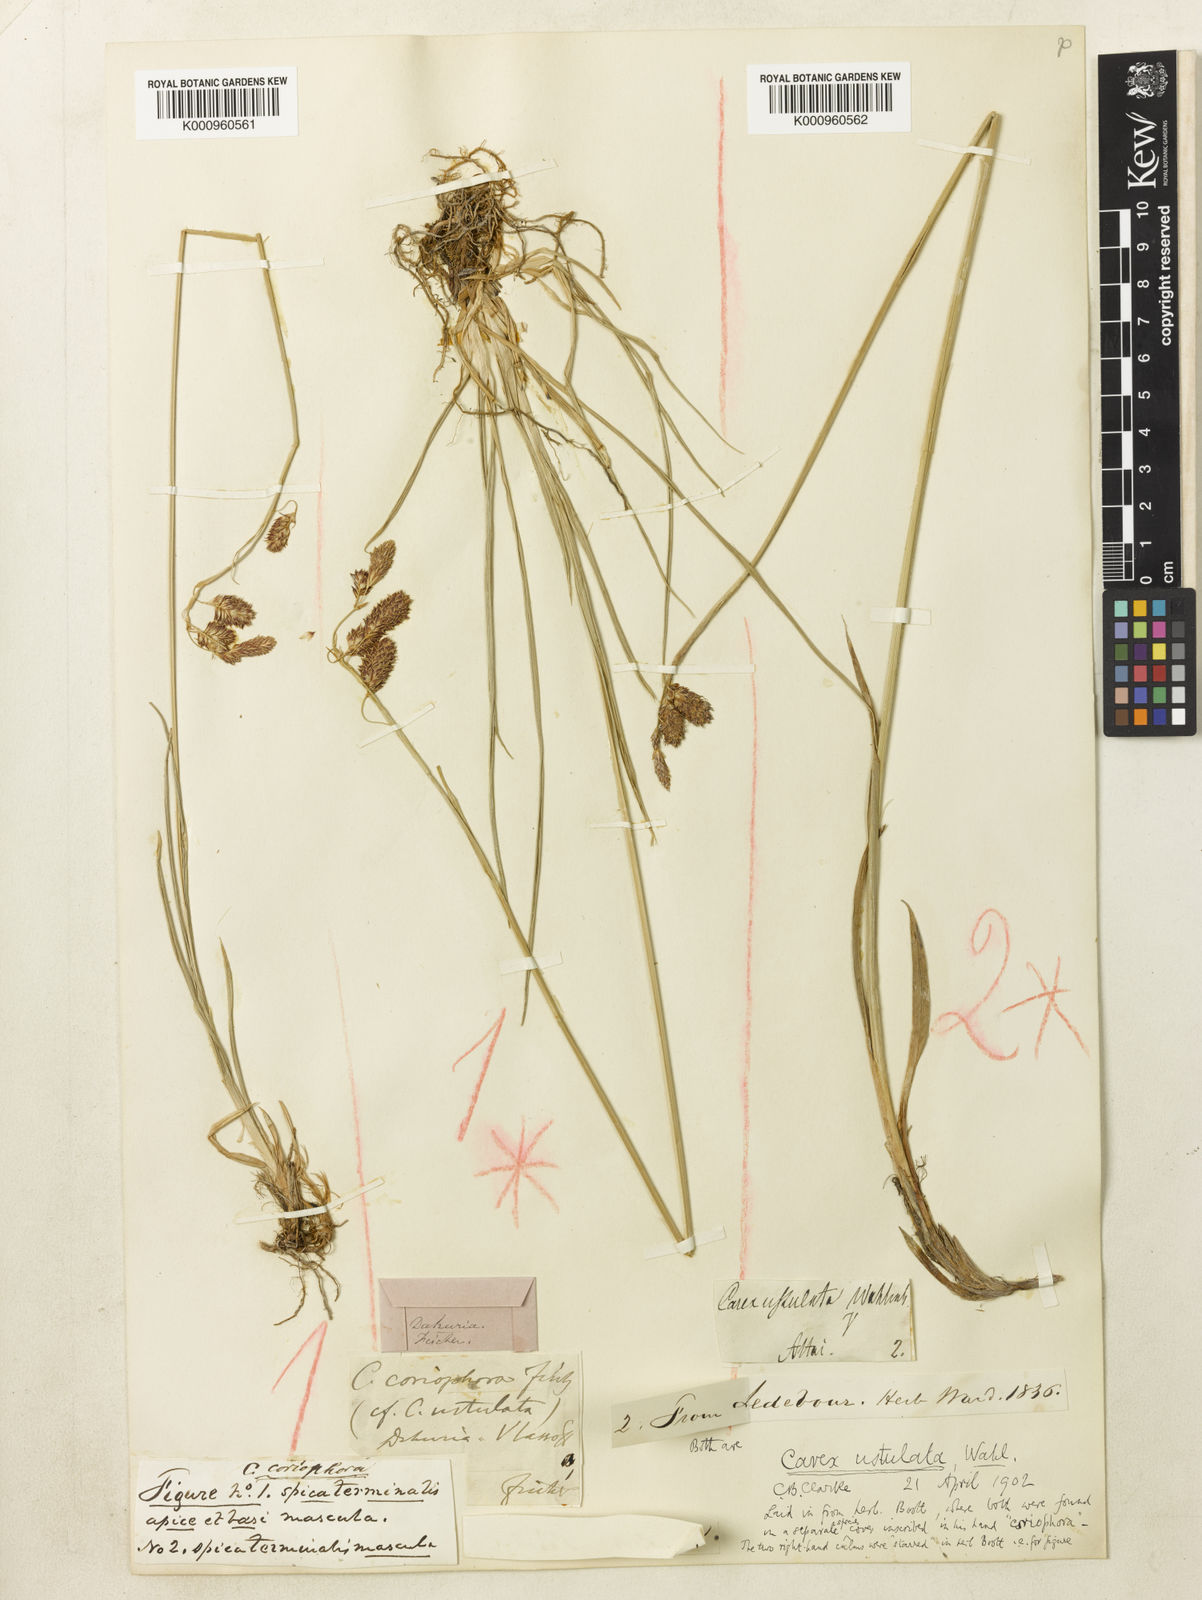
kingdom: Plantae
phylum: Tracheophyta
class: Liliopsida
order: Poales
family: Cyperaceae
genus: Carex
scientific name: Carex atrofusca
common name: Scorched alpine-sedge
